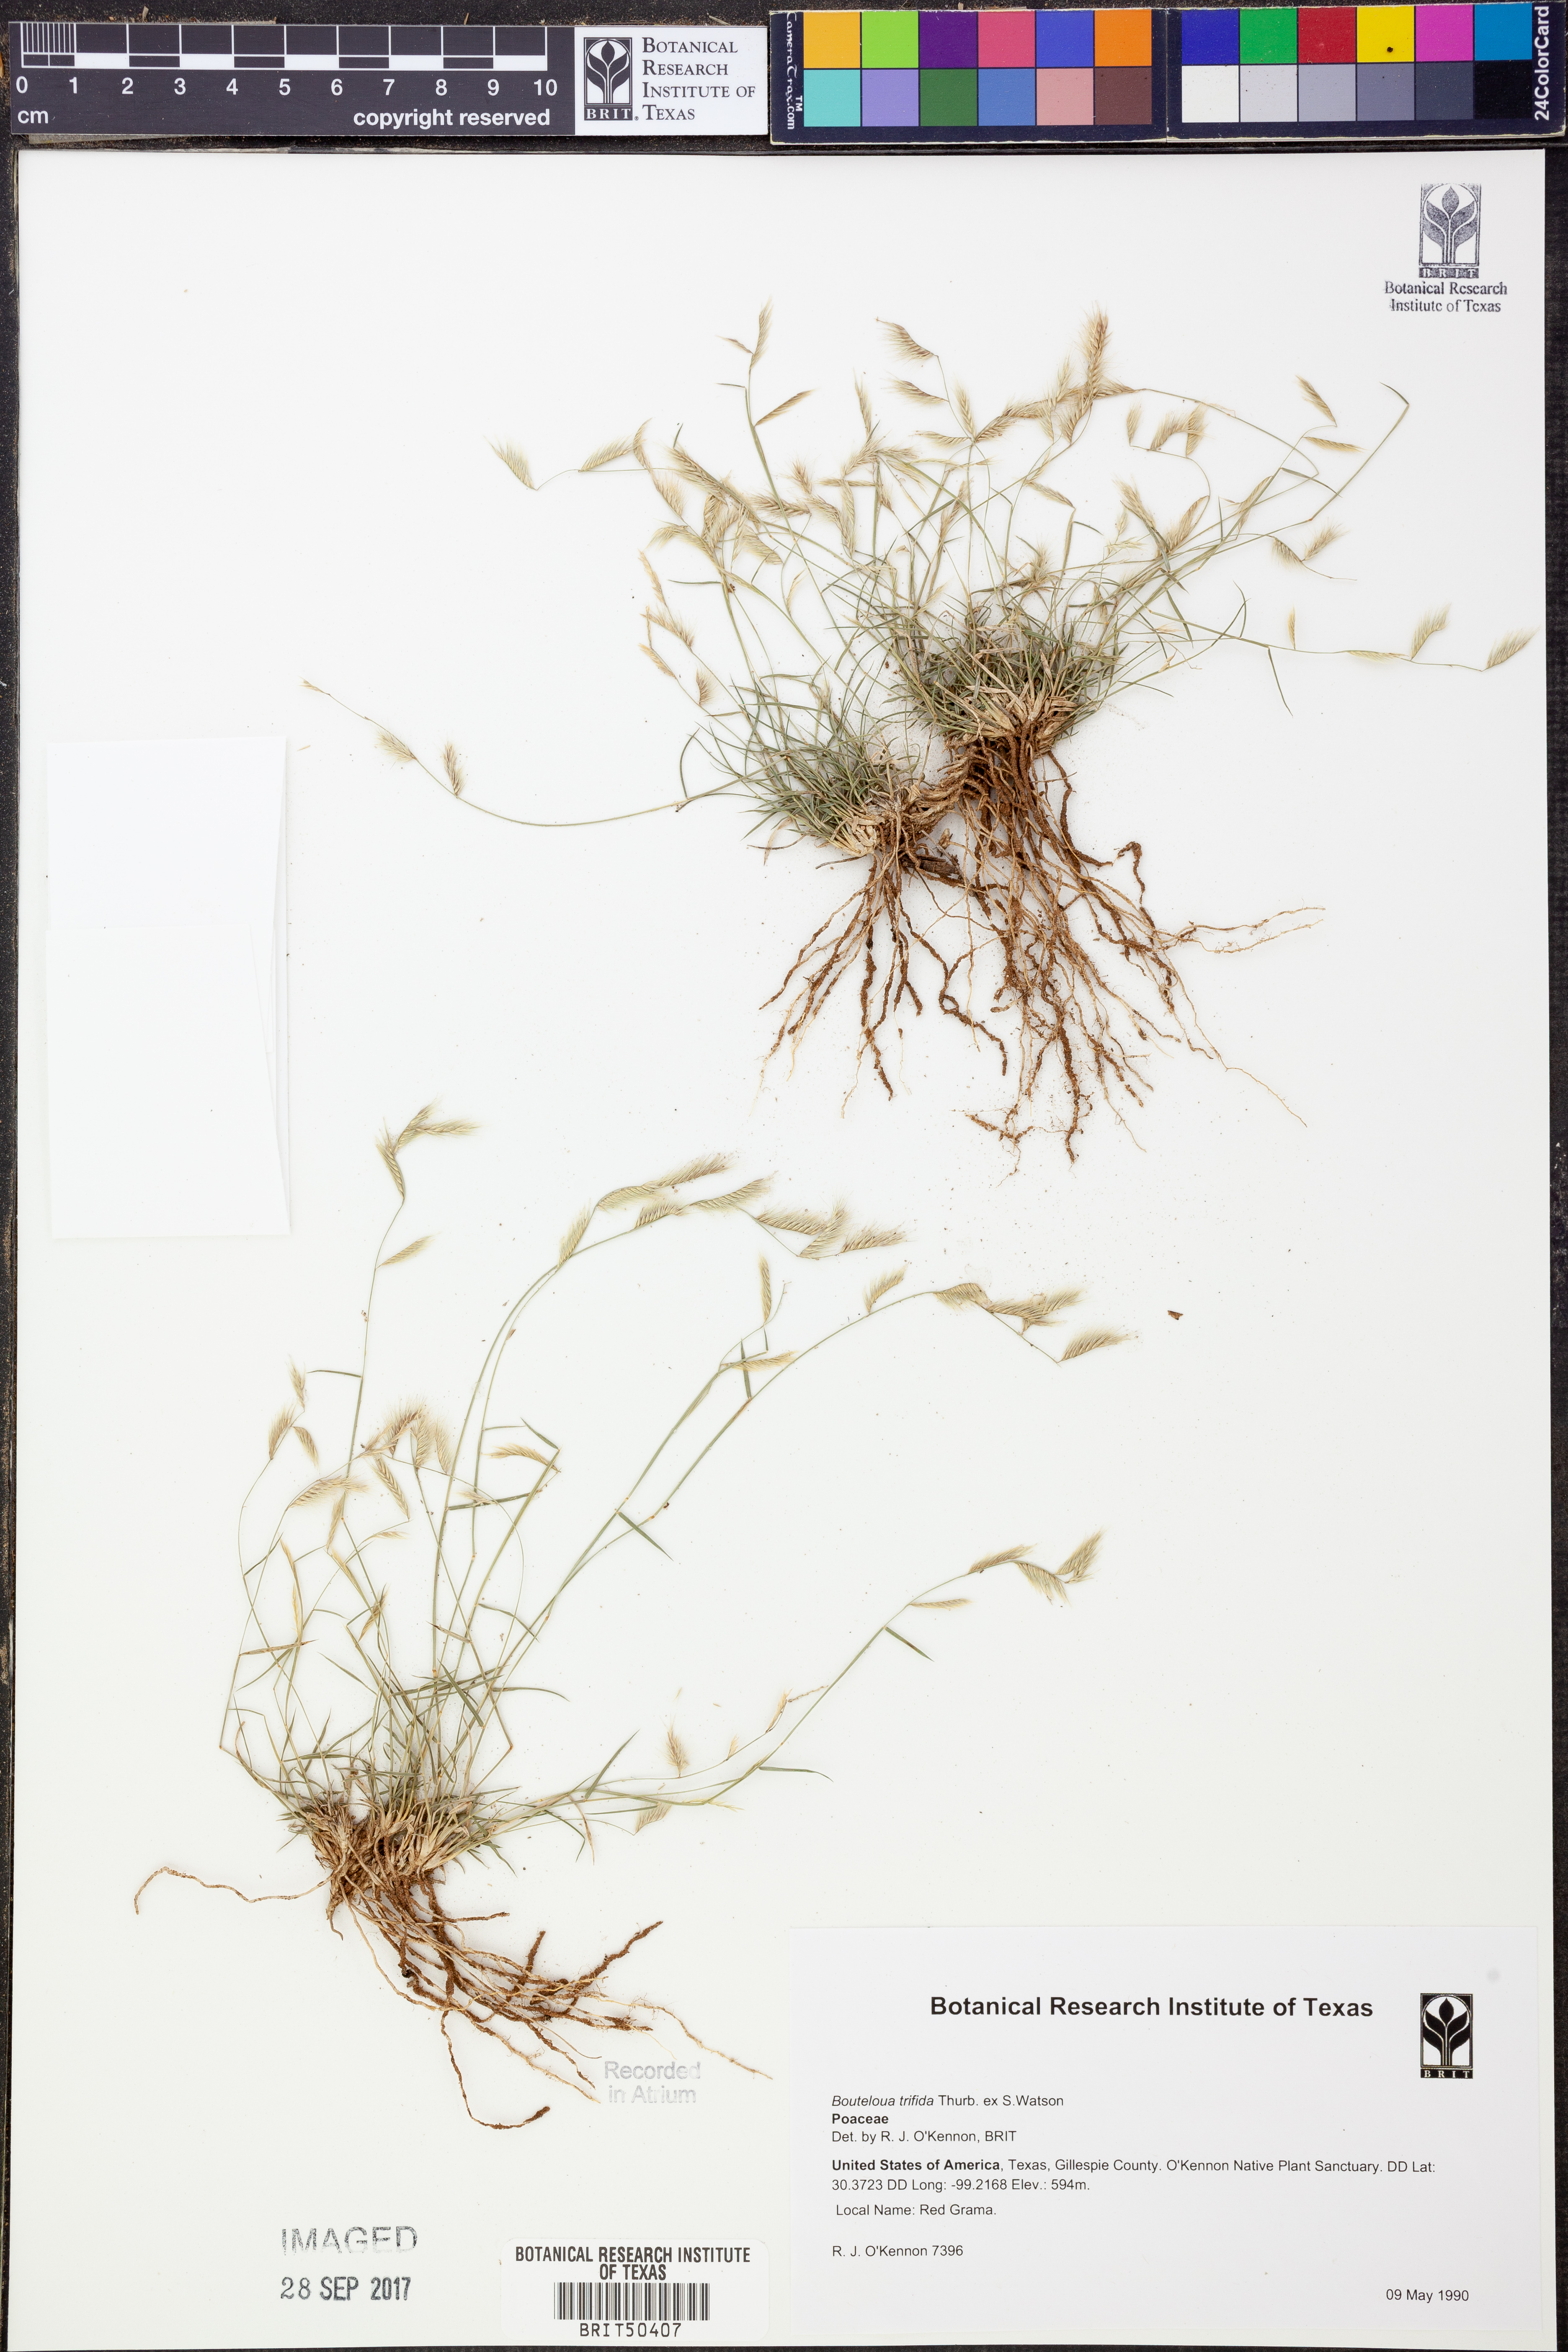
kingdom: Plantae
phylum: Tracheophyta
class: Liliopsida
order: Poales
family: Poaceae
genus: Bouteloua
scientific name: Bouteloua trifida
